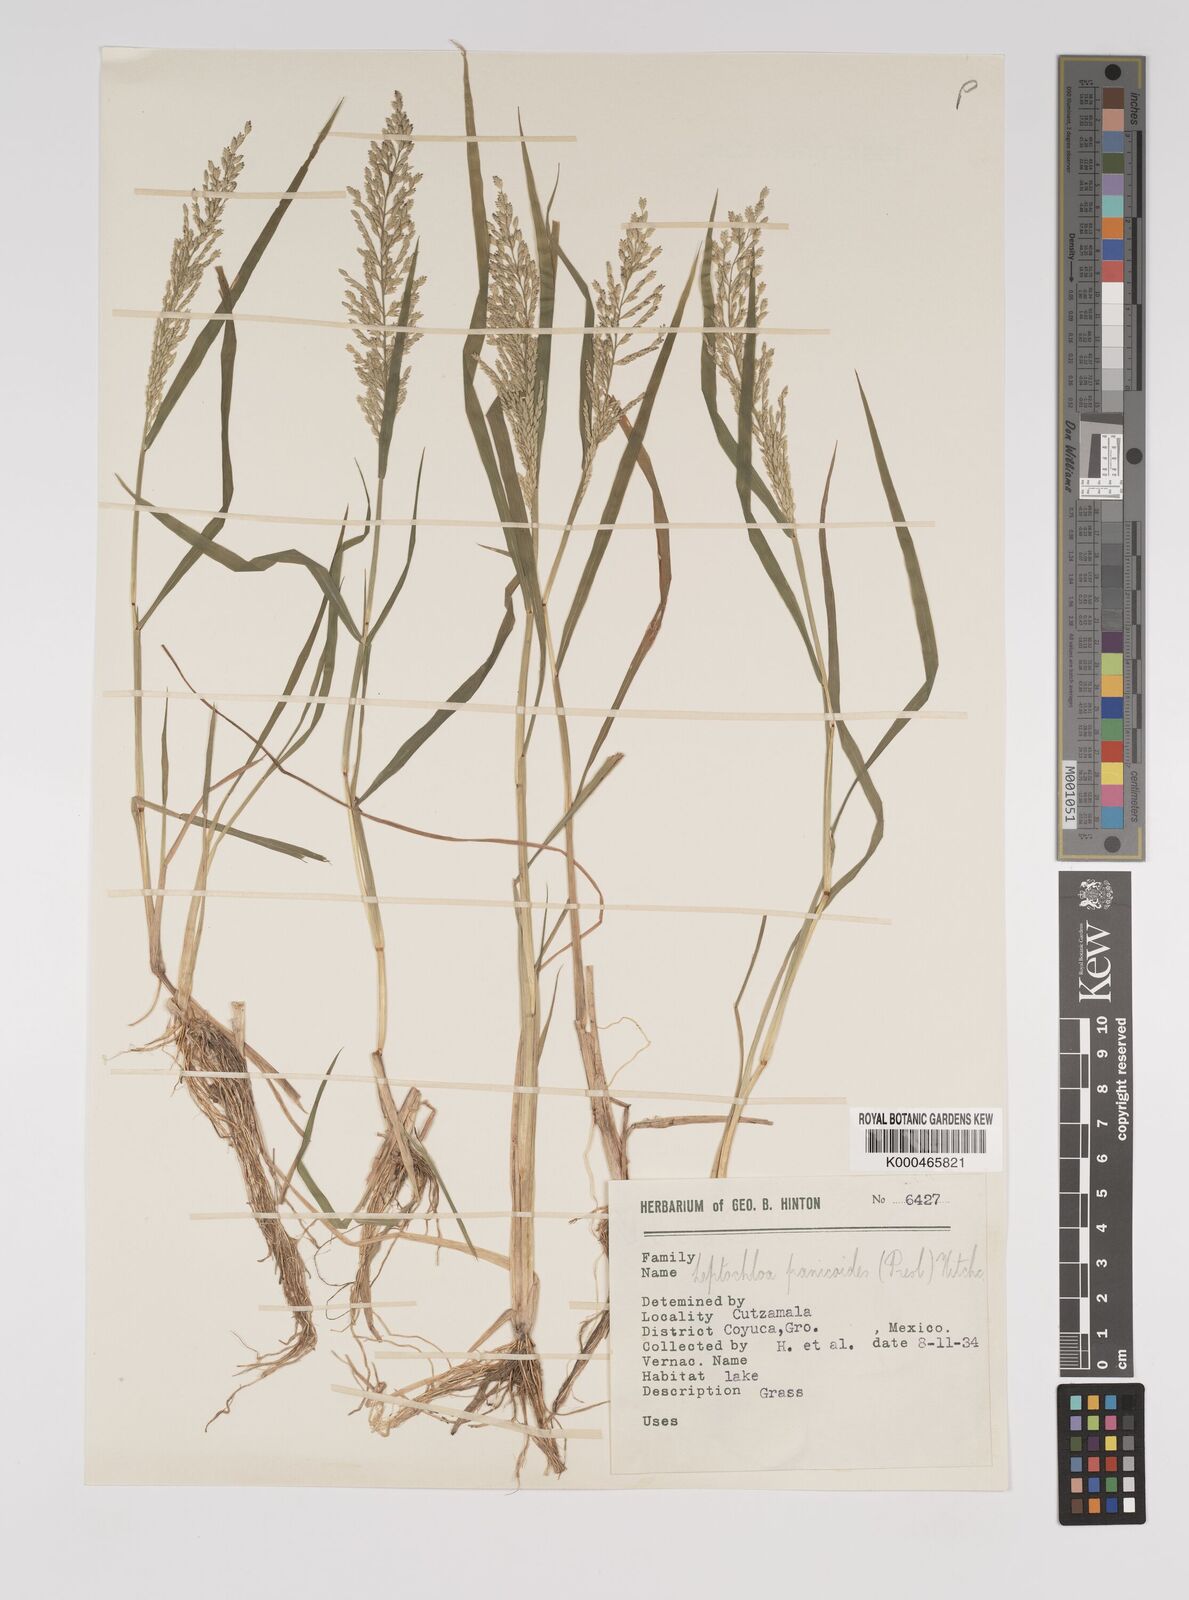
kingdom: Plantae
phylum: Tracheophyta
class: Liliopsida
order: Poales
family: Poaceae
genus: Leptochloa
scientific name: Leptochloa panicoides
